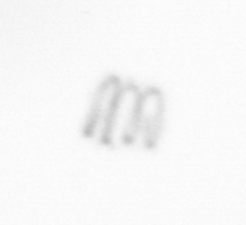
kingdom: Chromista
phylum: Ochrophyta
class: Bacillariophyceae
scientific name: Bacillariophyceae
